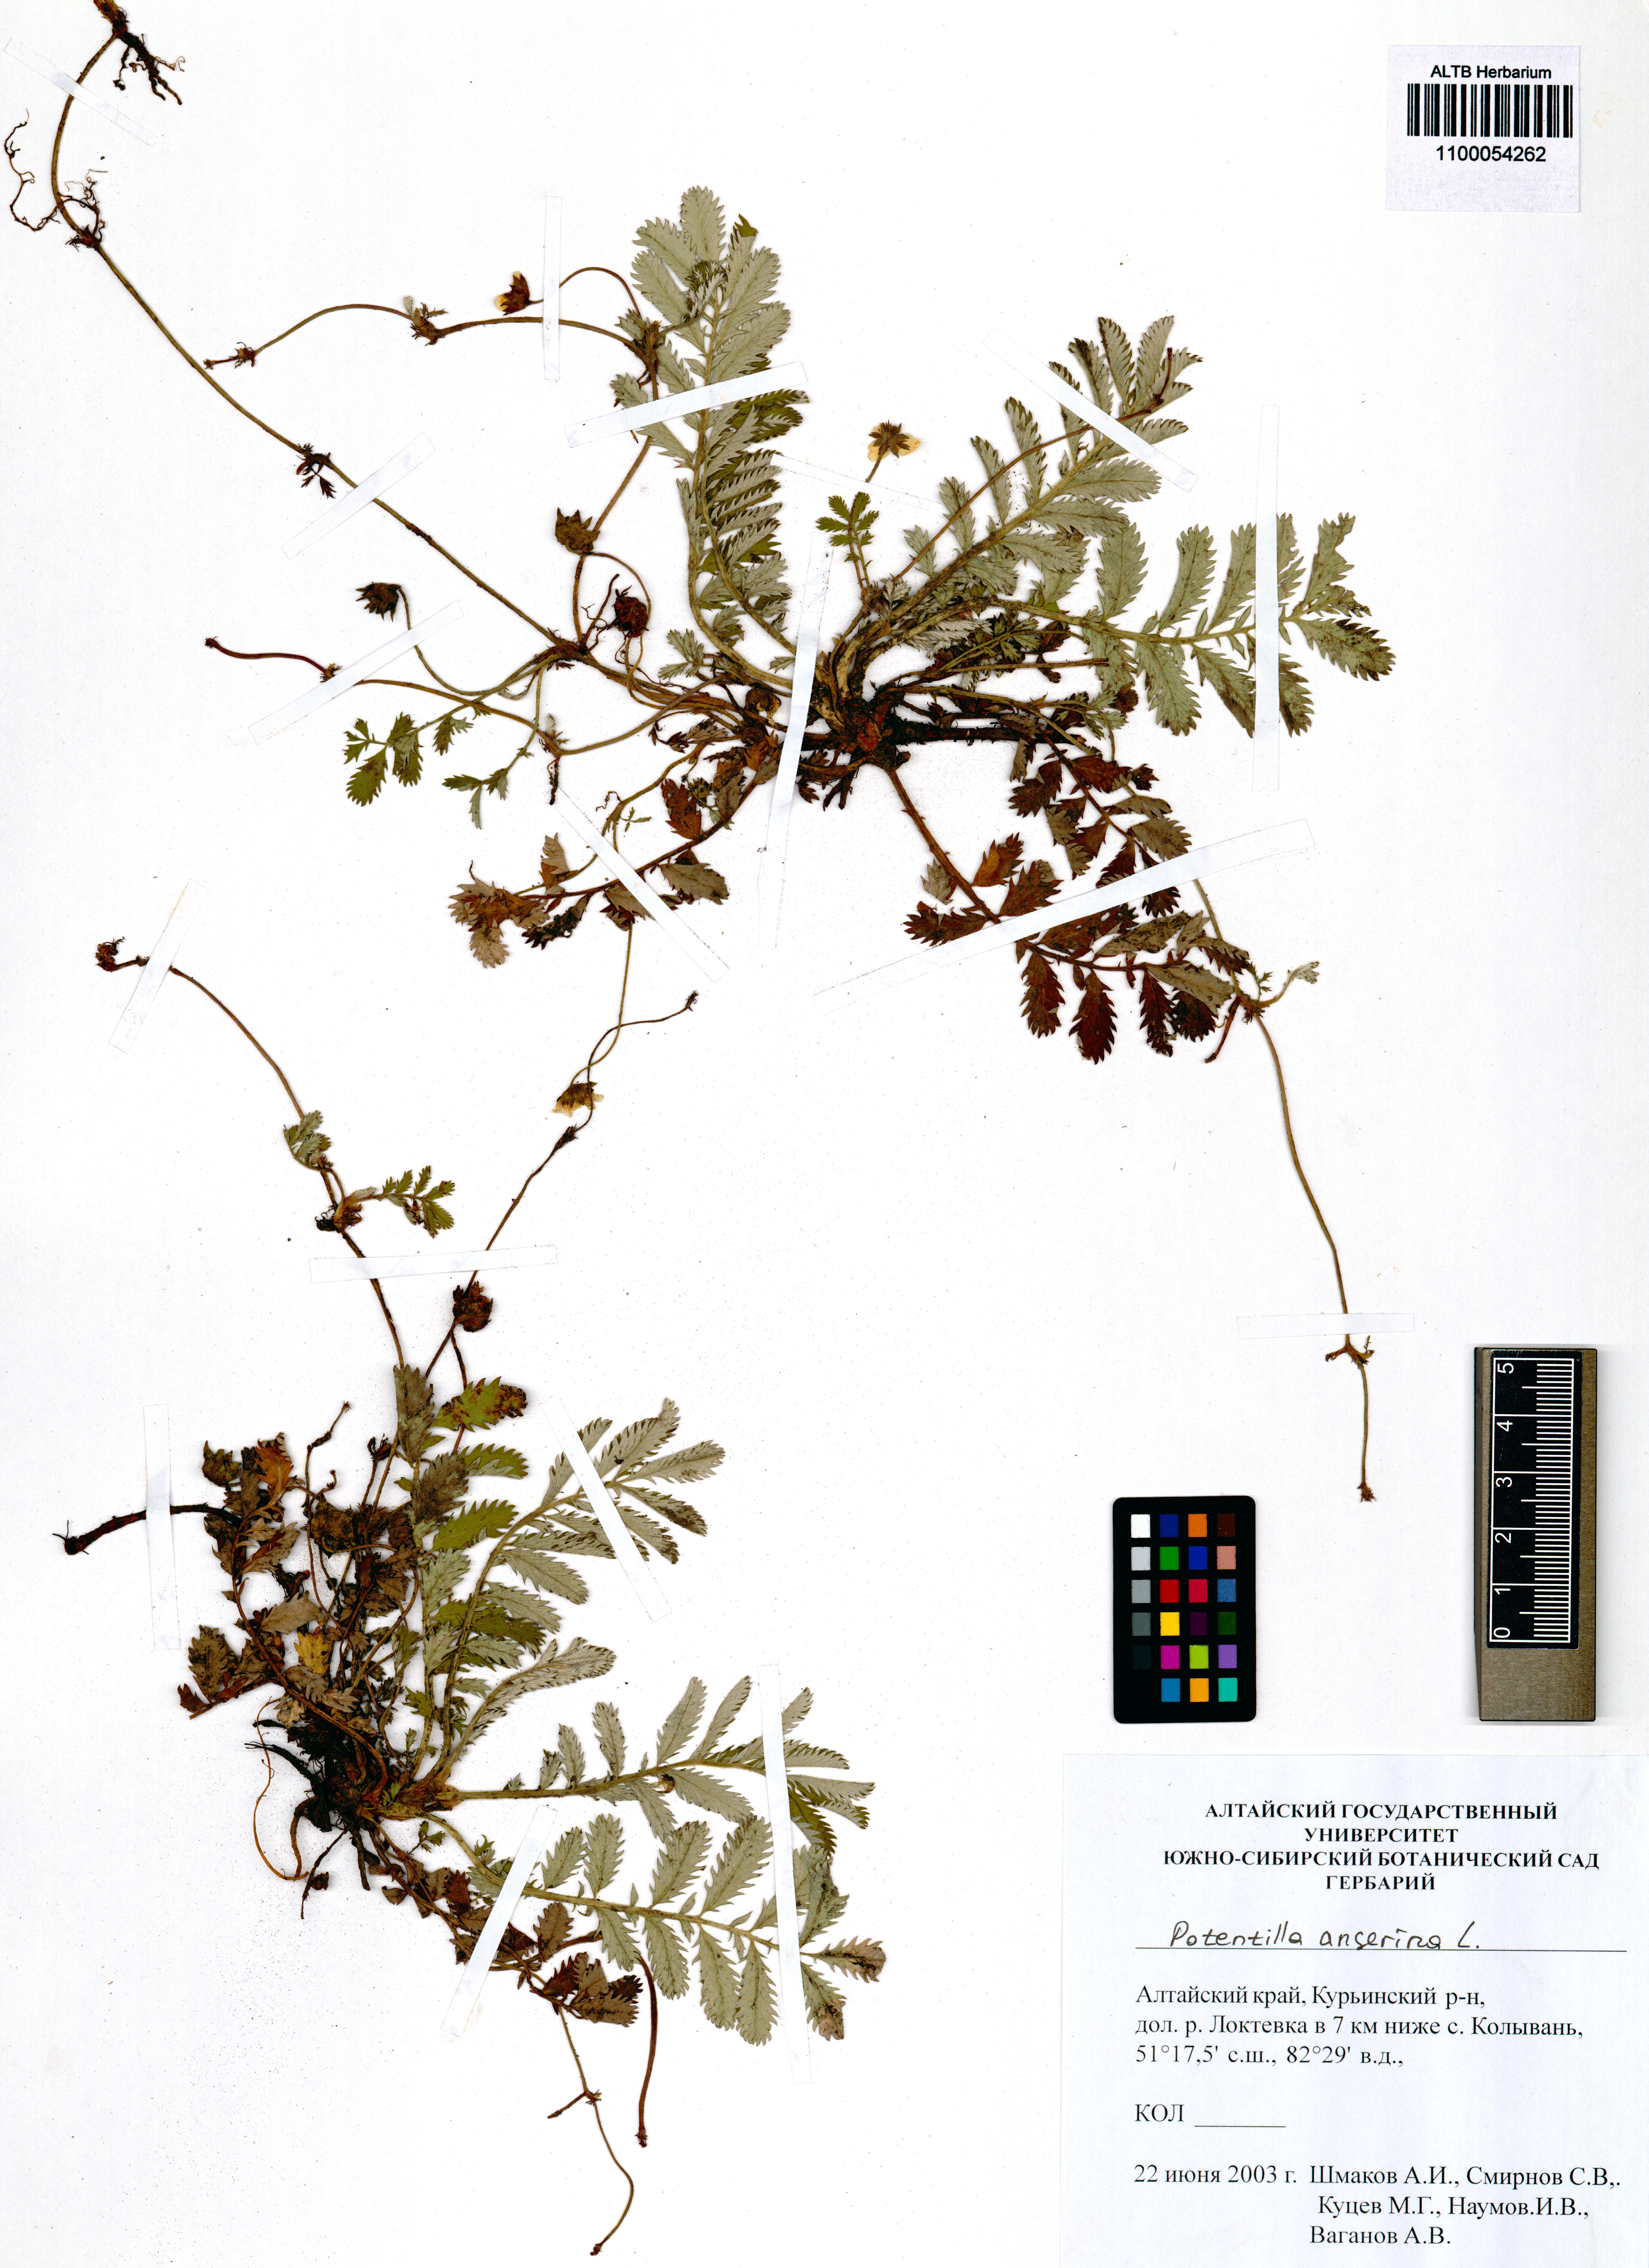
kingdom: Plantae
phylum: Tracheophyta
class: Magnoliopsida
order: Rosales
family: Rosaceae
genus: Argentina
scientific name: Argentina anserina
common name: Common silverweed
